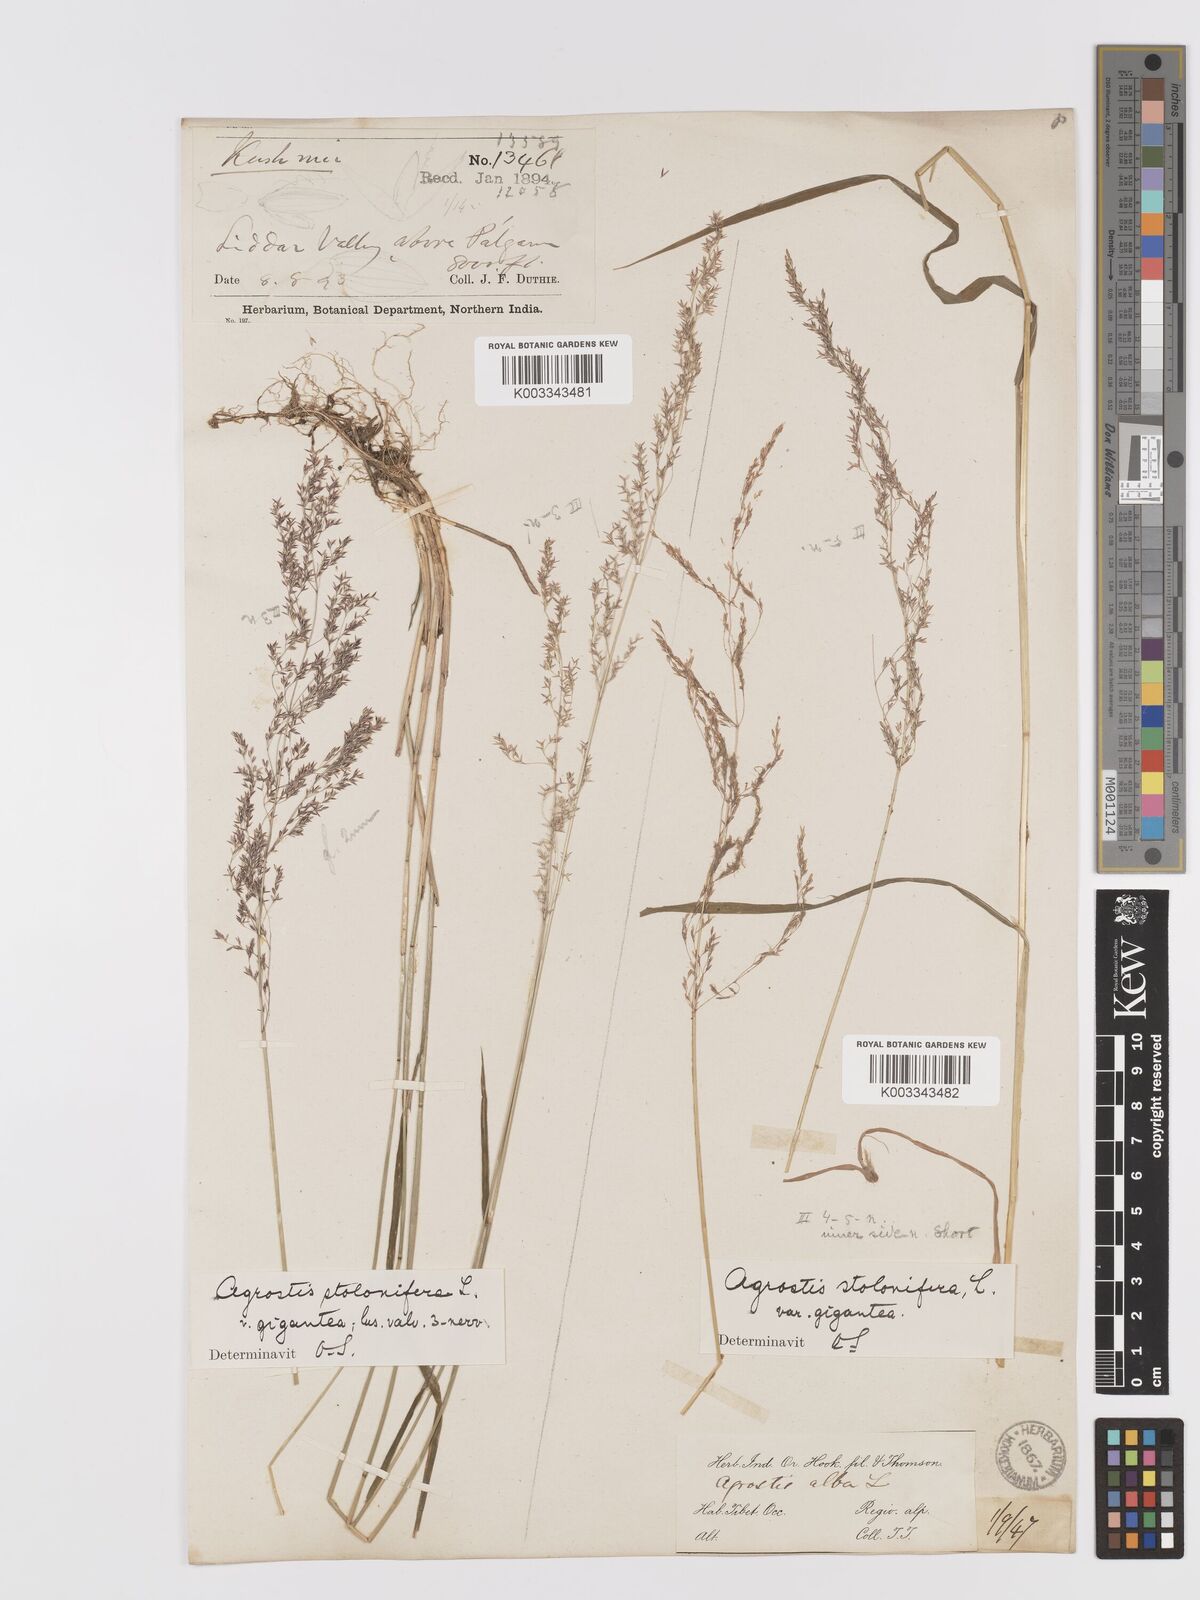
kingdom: Plantae
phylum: Tracheophyta
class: Liliopsida
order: Poales
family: Poaceae
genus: Agrostis
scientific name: Agrostis gigantea
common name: Black bent
